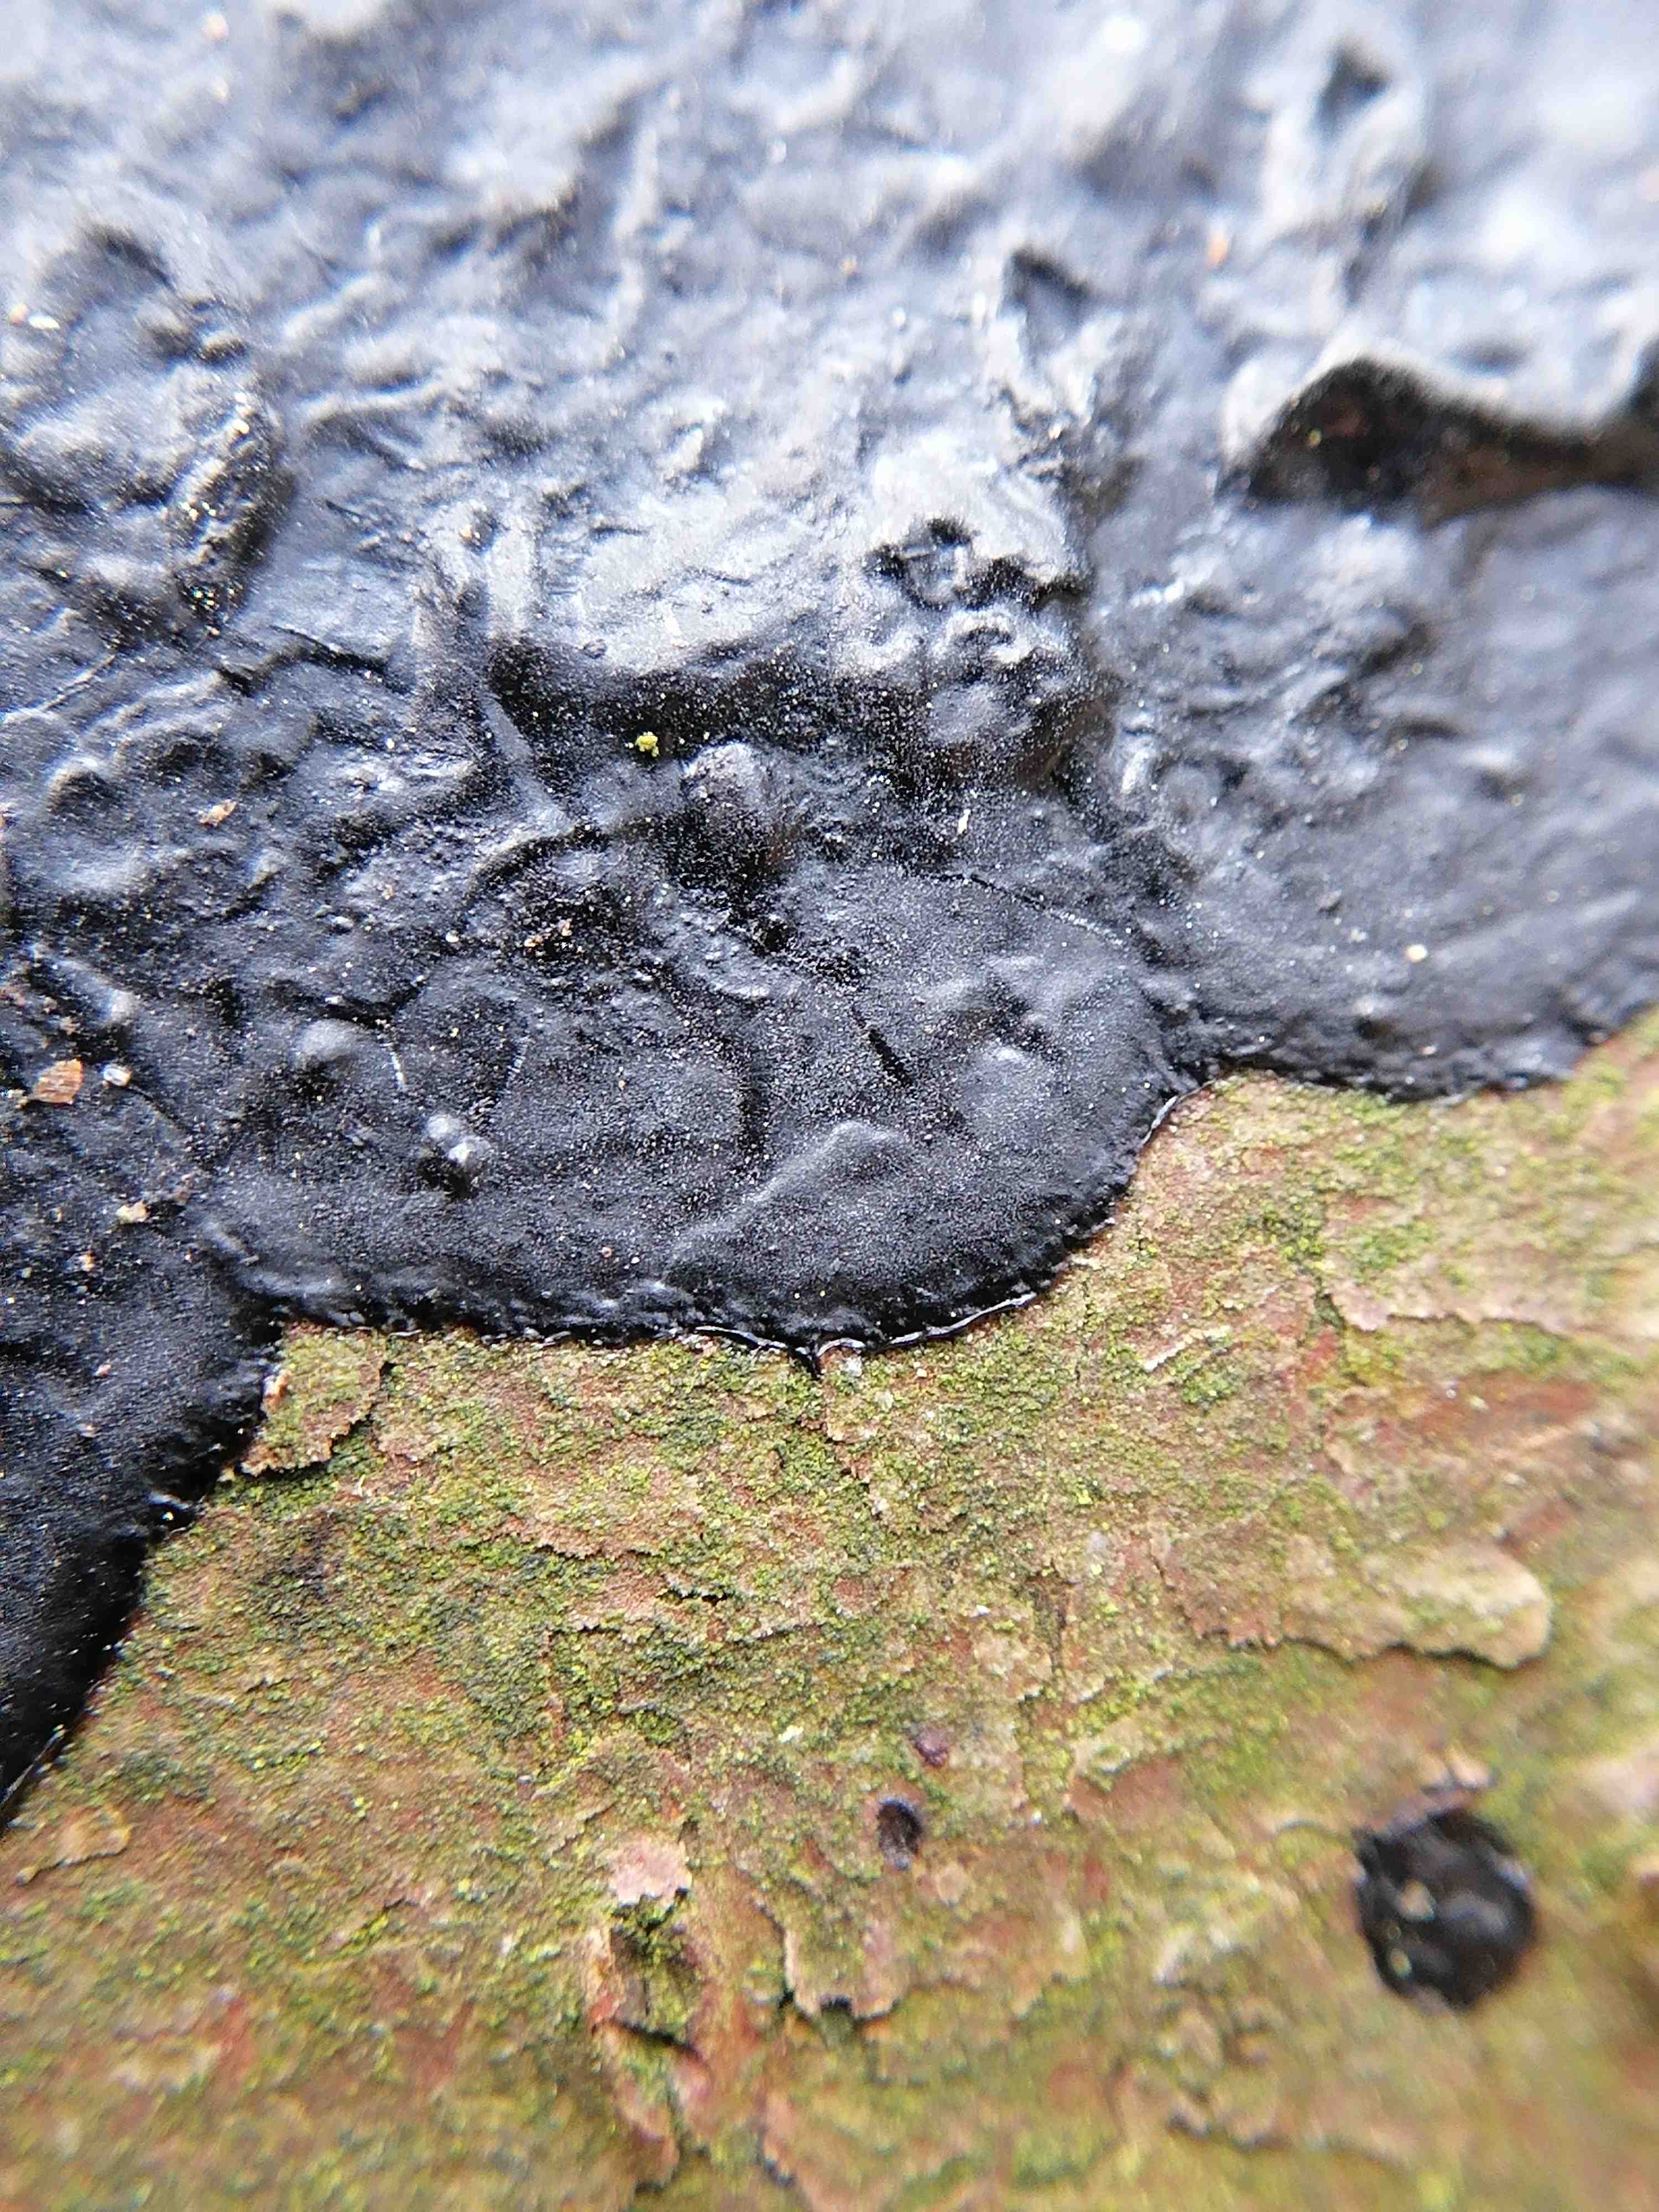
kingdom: Fungi
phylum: Basidiomycota
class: Agaricomycetes
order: Auriculariales
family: Auriculariaceae
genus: Exidia
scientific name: Exidia pithya
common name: gran-bævretop
